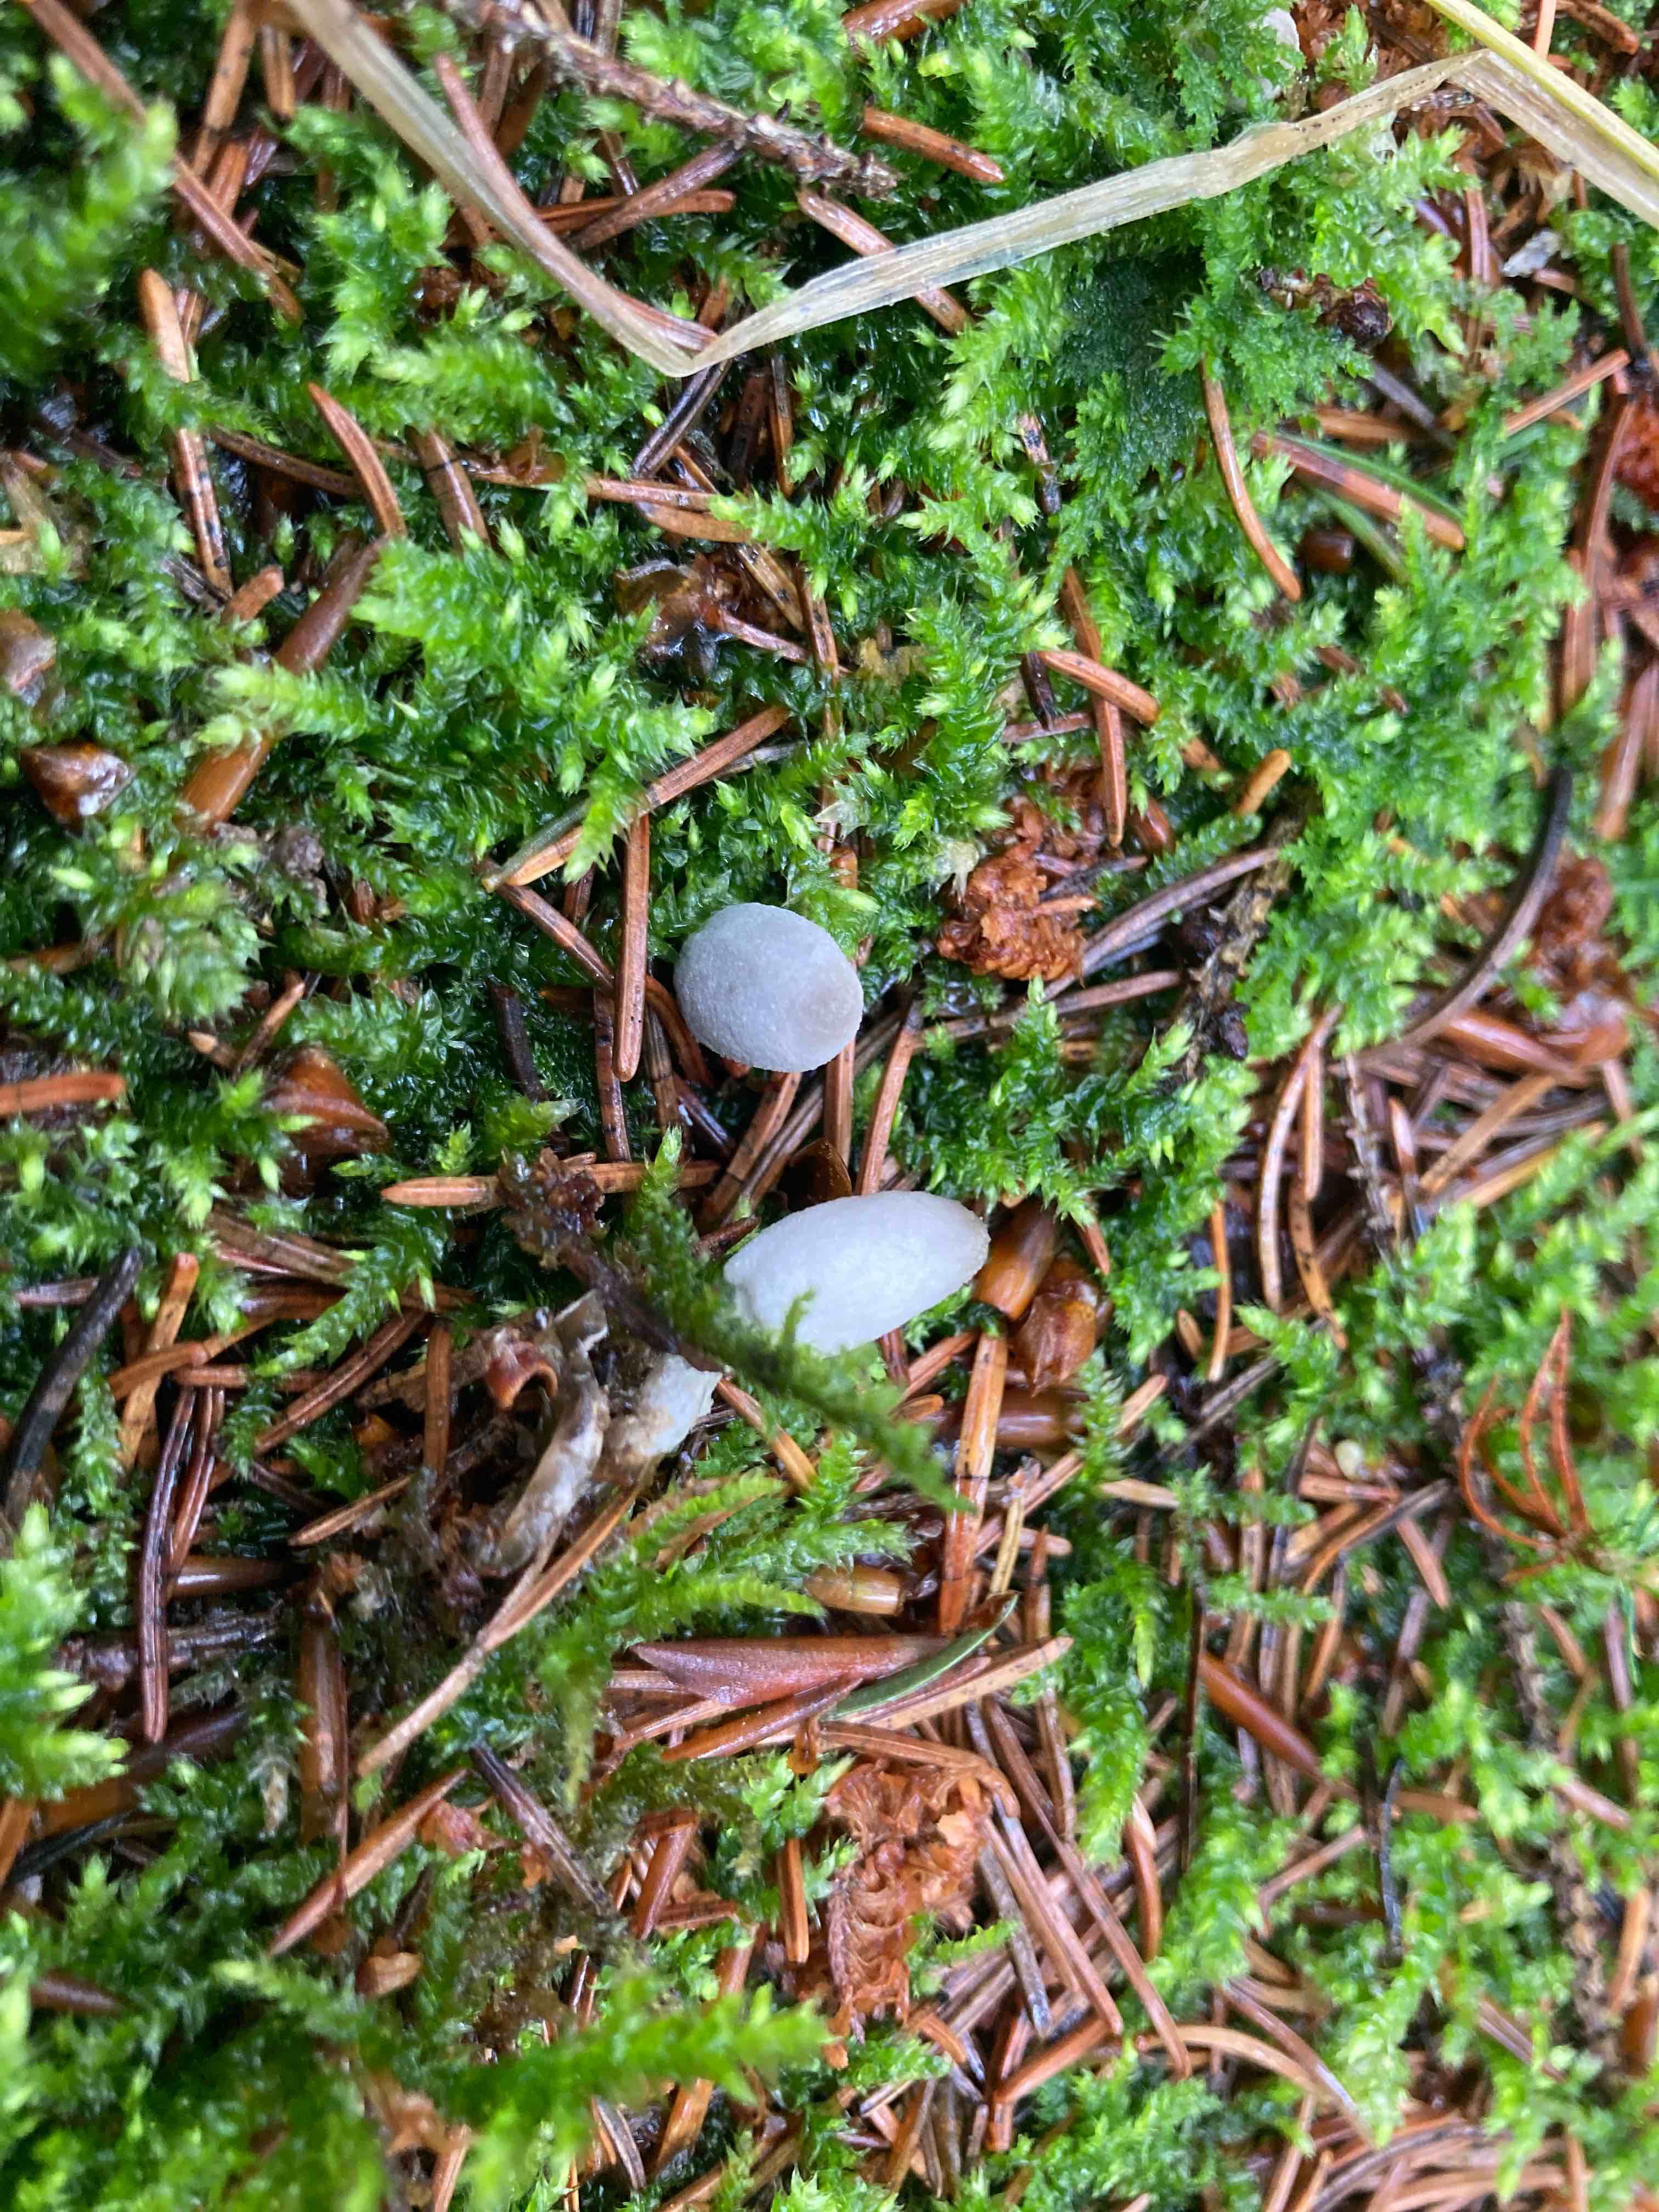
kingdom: Fungi
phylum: Basidiomycota
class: Agaricomycetes
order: Agaricales
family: Psathyrellaceae
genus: Coprinopsis
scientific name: Coprinopsis laanii
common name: stub-blækhat
